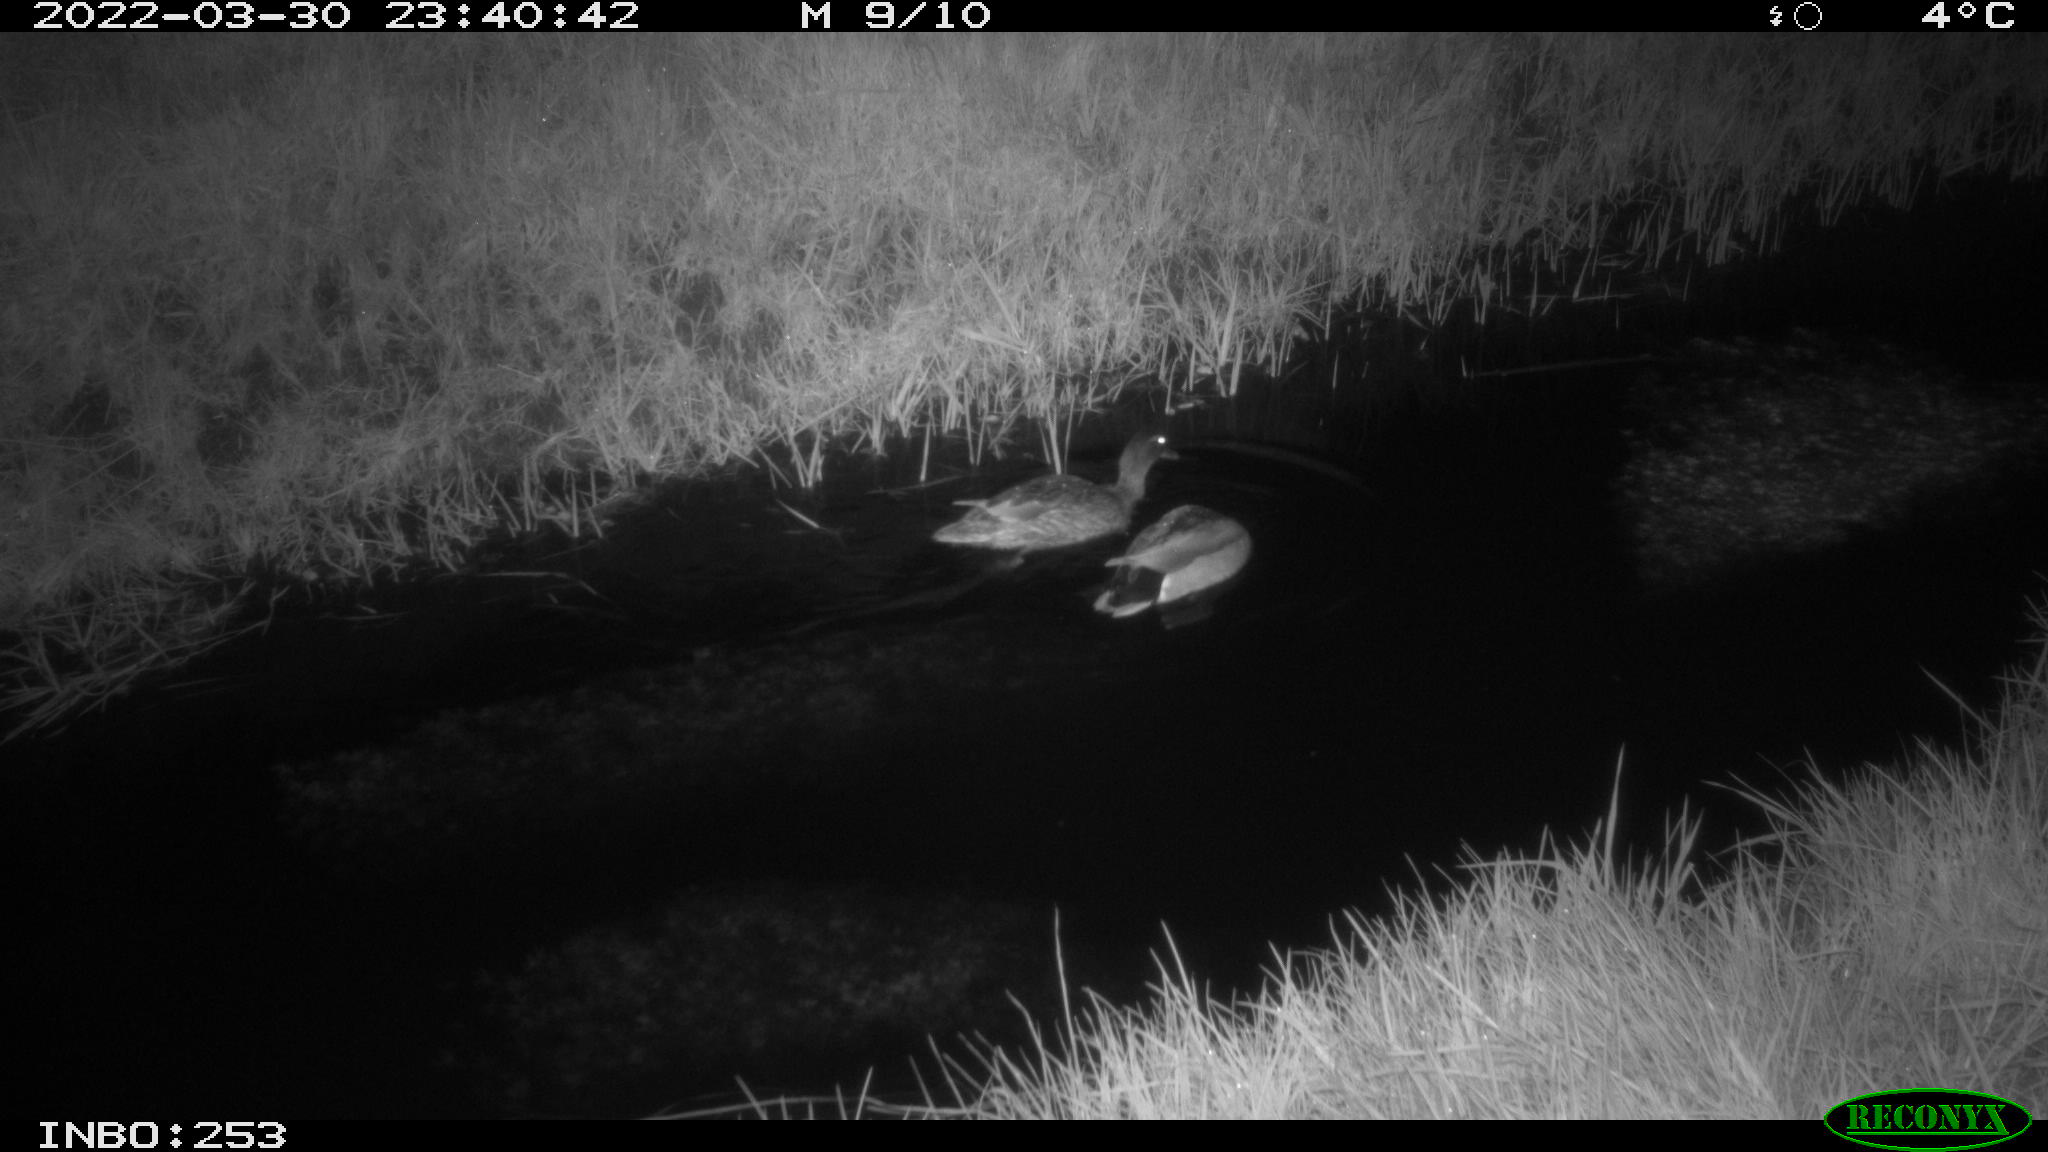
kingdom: Animalia
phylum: Chordata
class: Aves
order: Anseriformes
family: Anatidae
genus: Anas
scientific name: Anas platyrhynchos
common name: Mallard
